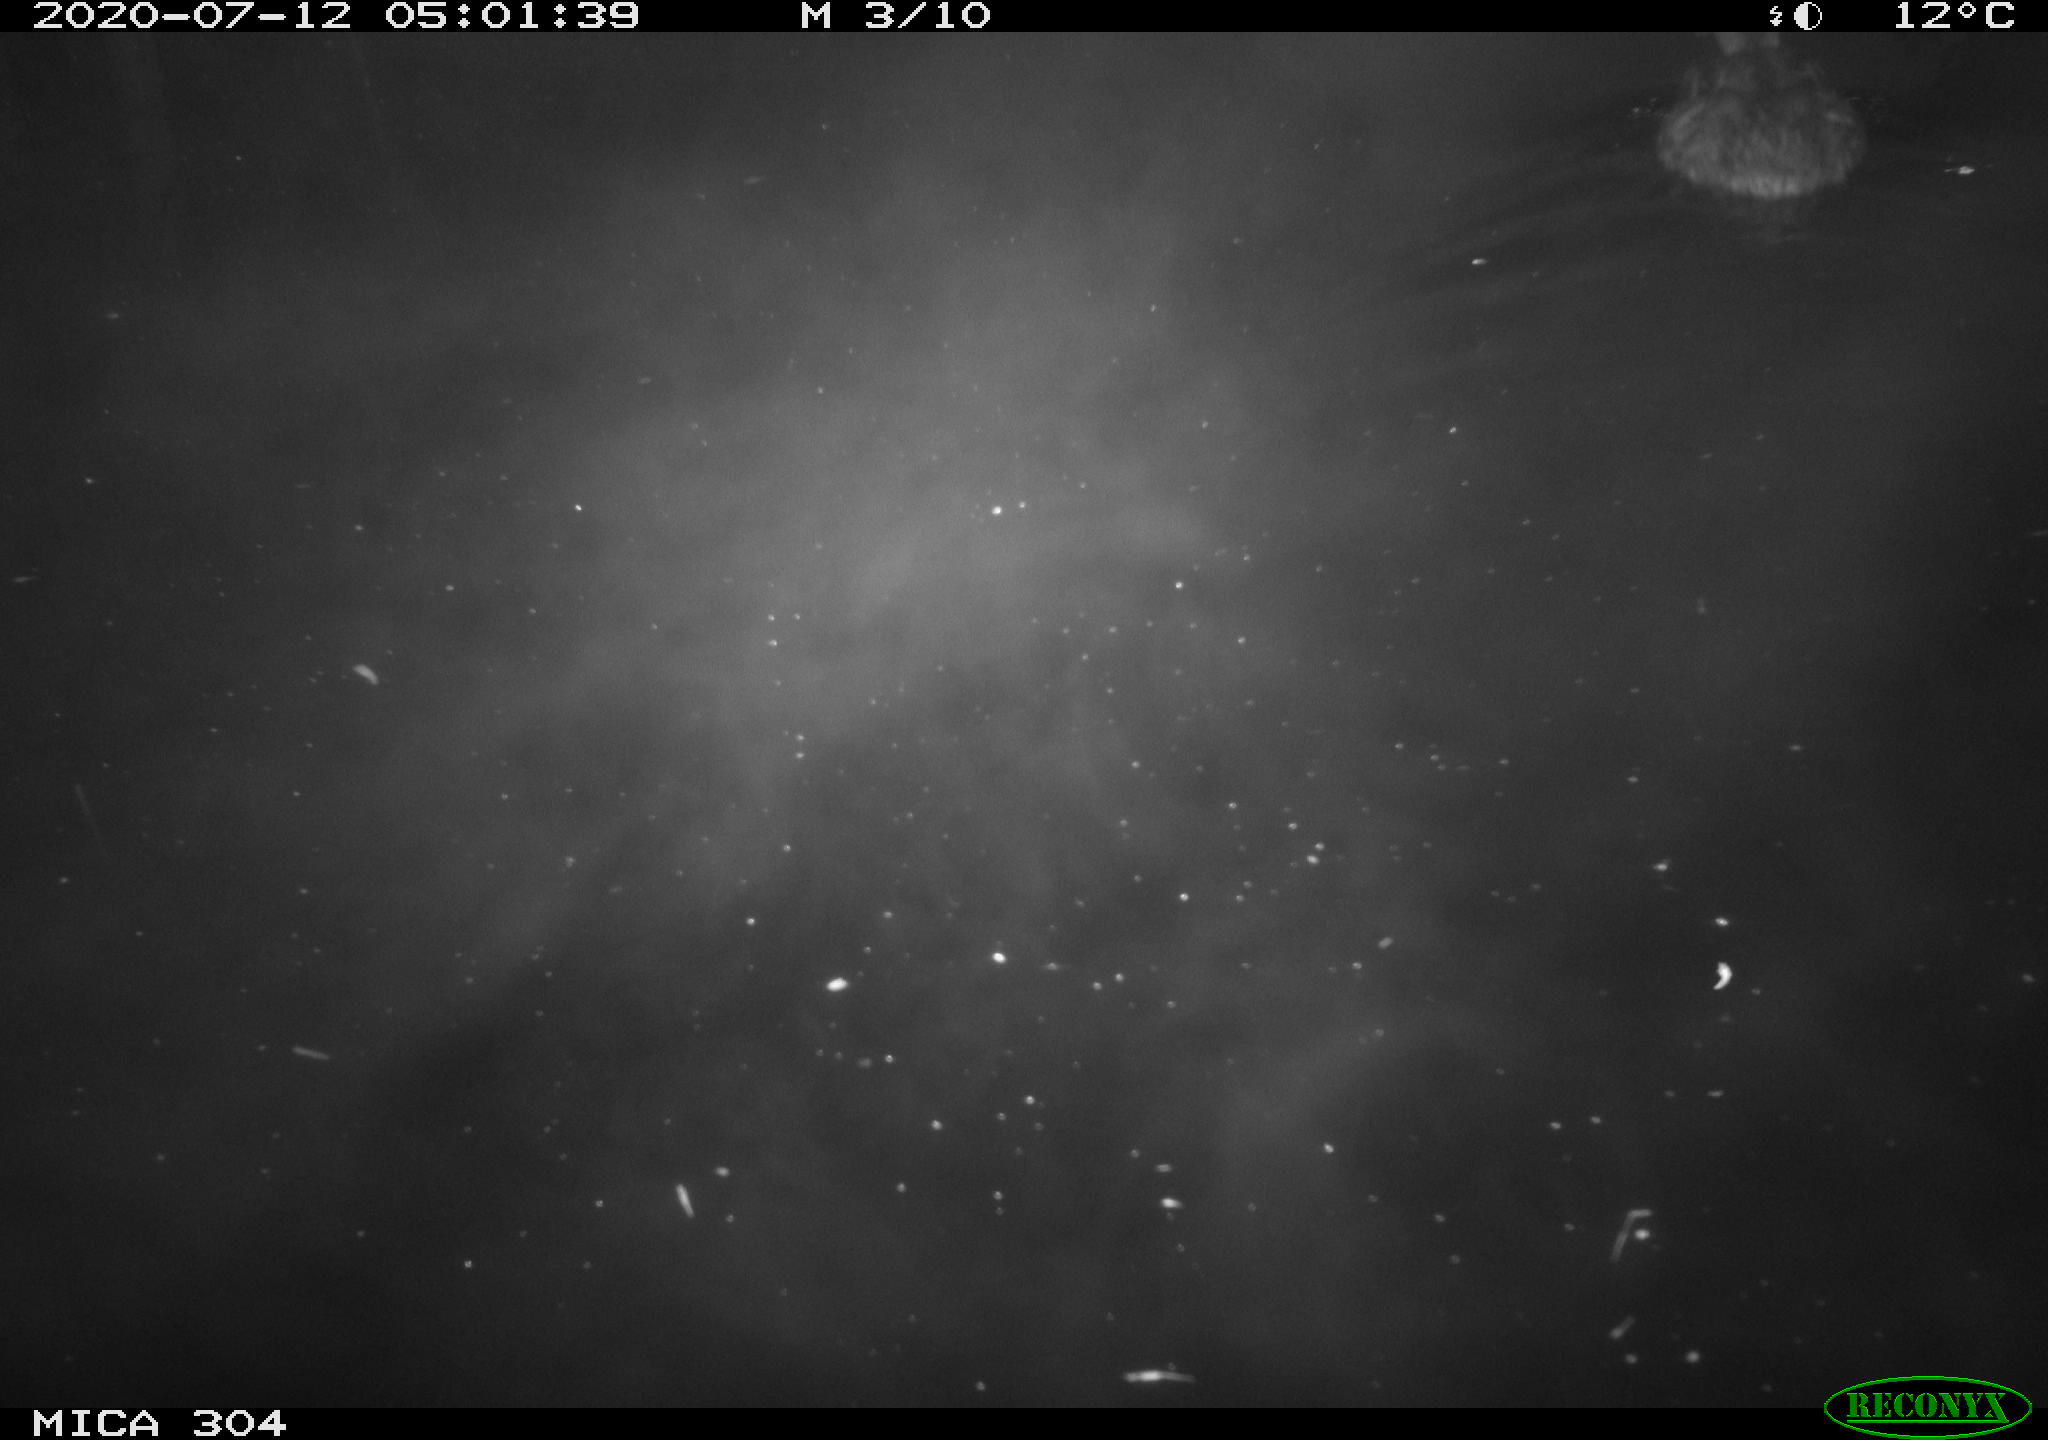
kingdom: Animalia
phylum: Chordata
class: Aves
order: Anseriformes
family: Anatidae
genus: Anas
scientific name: Anas platyrhynchos
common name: Mallard
